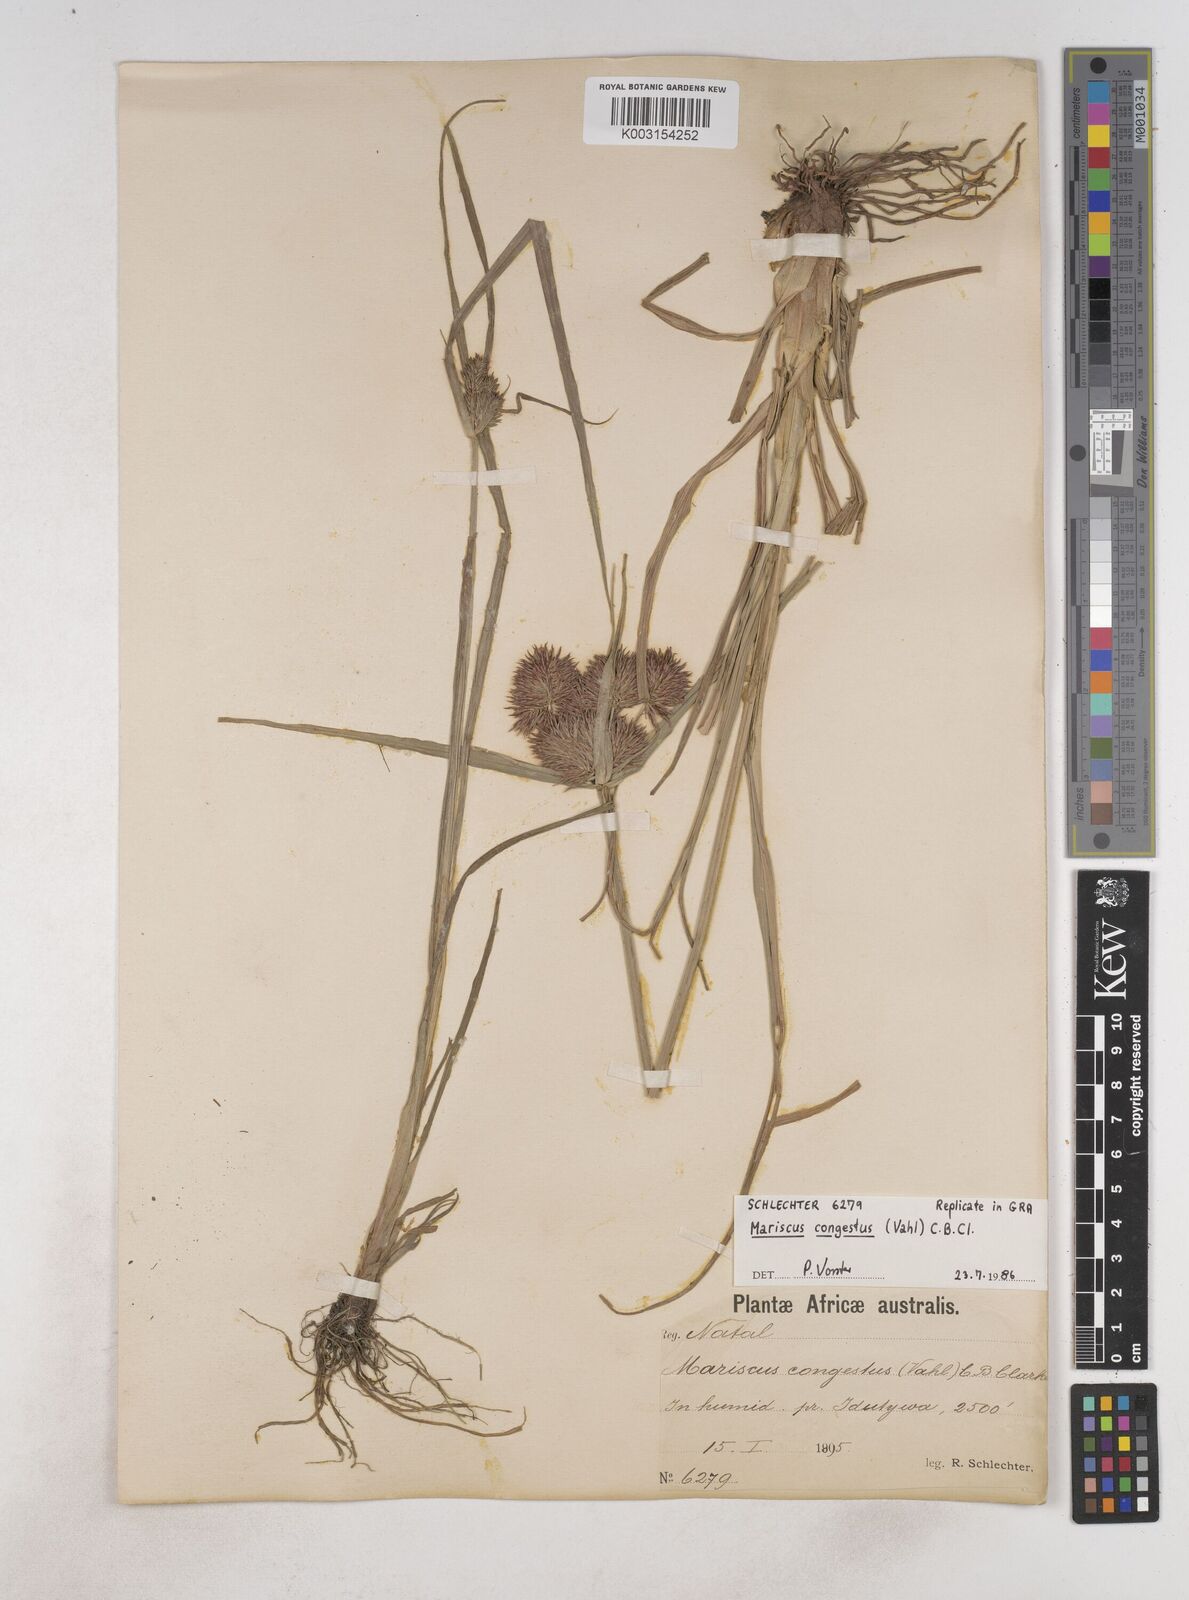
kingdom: Plantae
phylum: Tracheophyta
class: Liliopsida
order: Poales
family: Cyperaceae
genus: Cyperus
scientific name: Cyperus congestus
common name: Dense flat sedge
